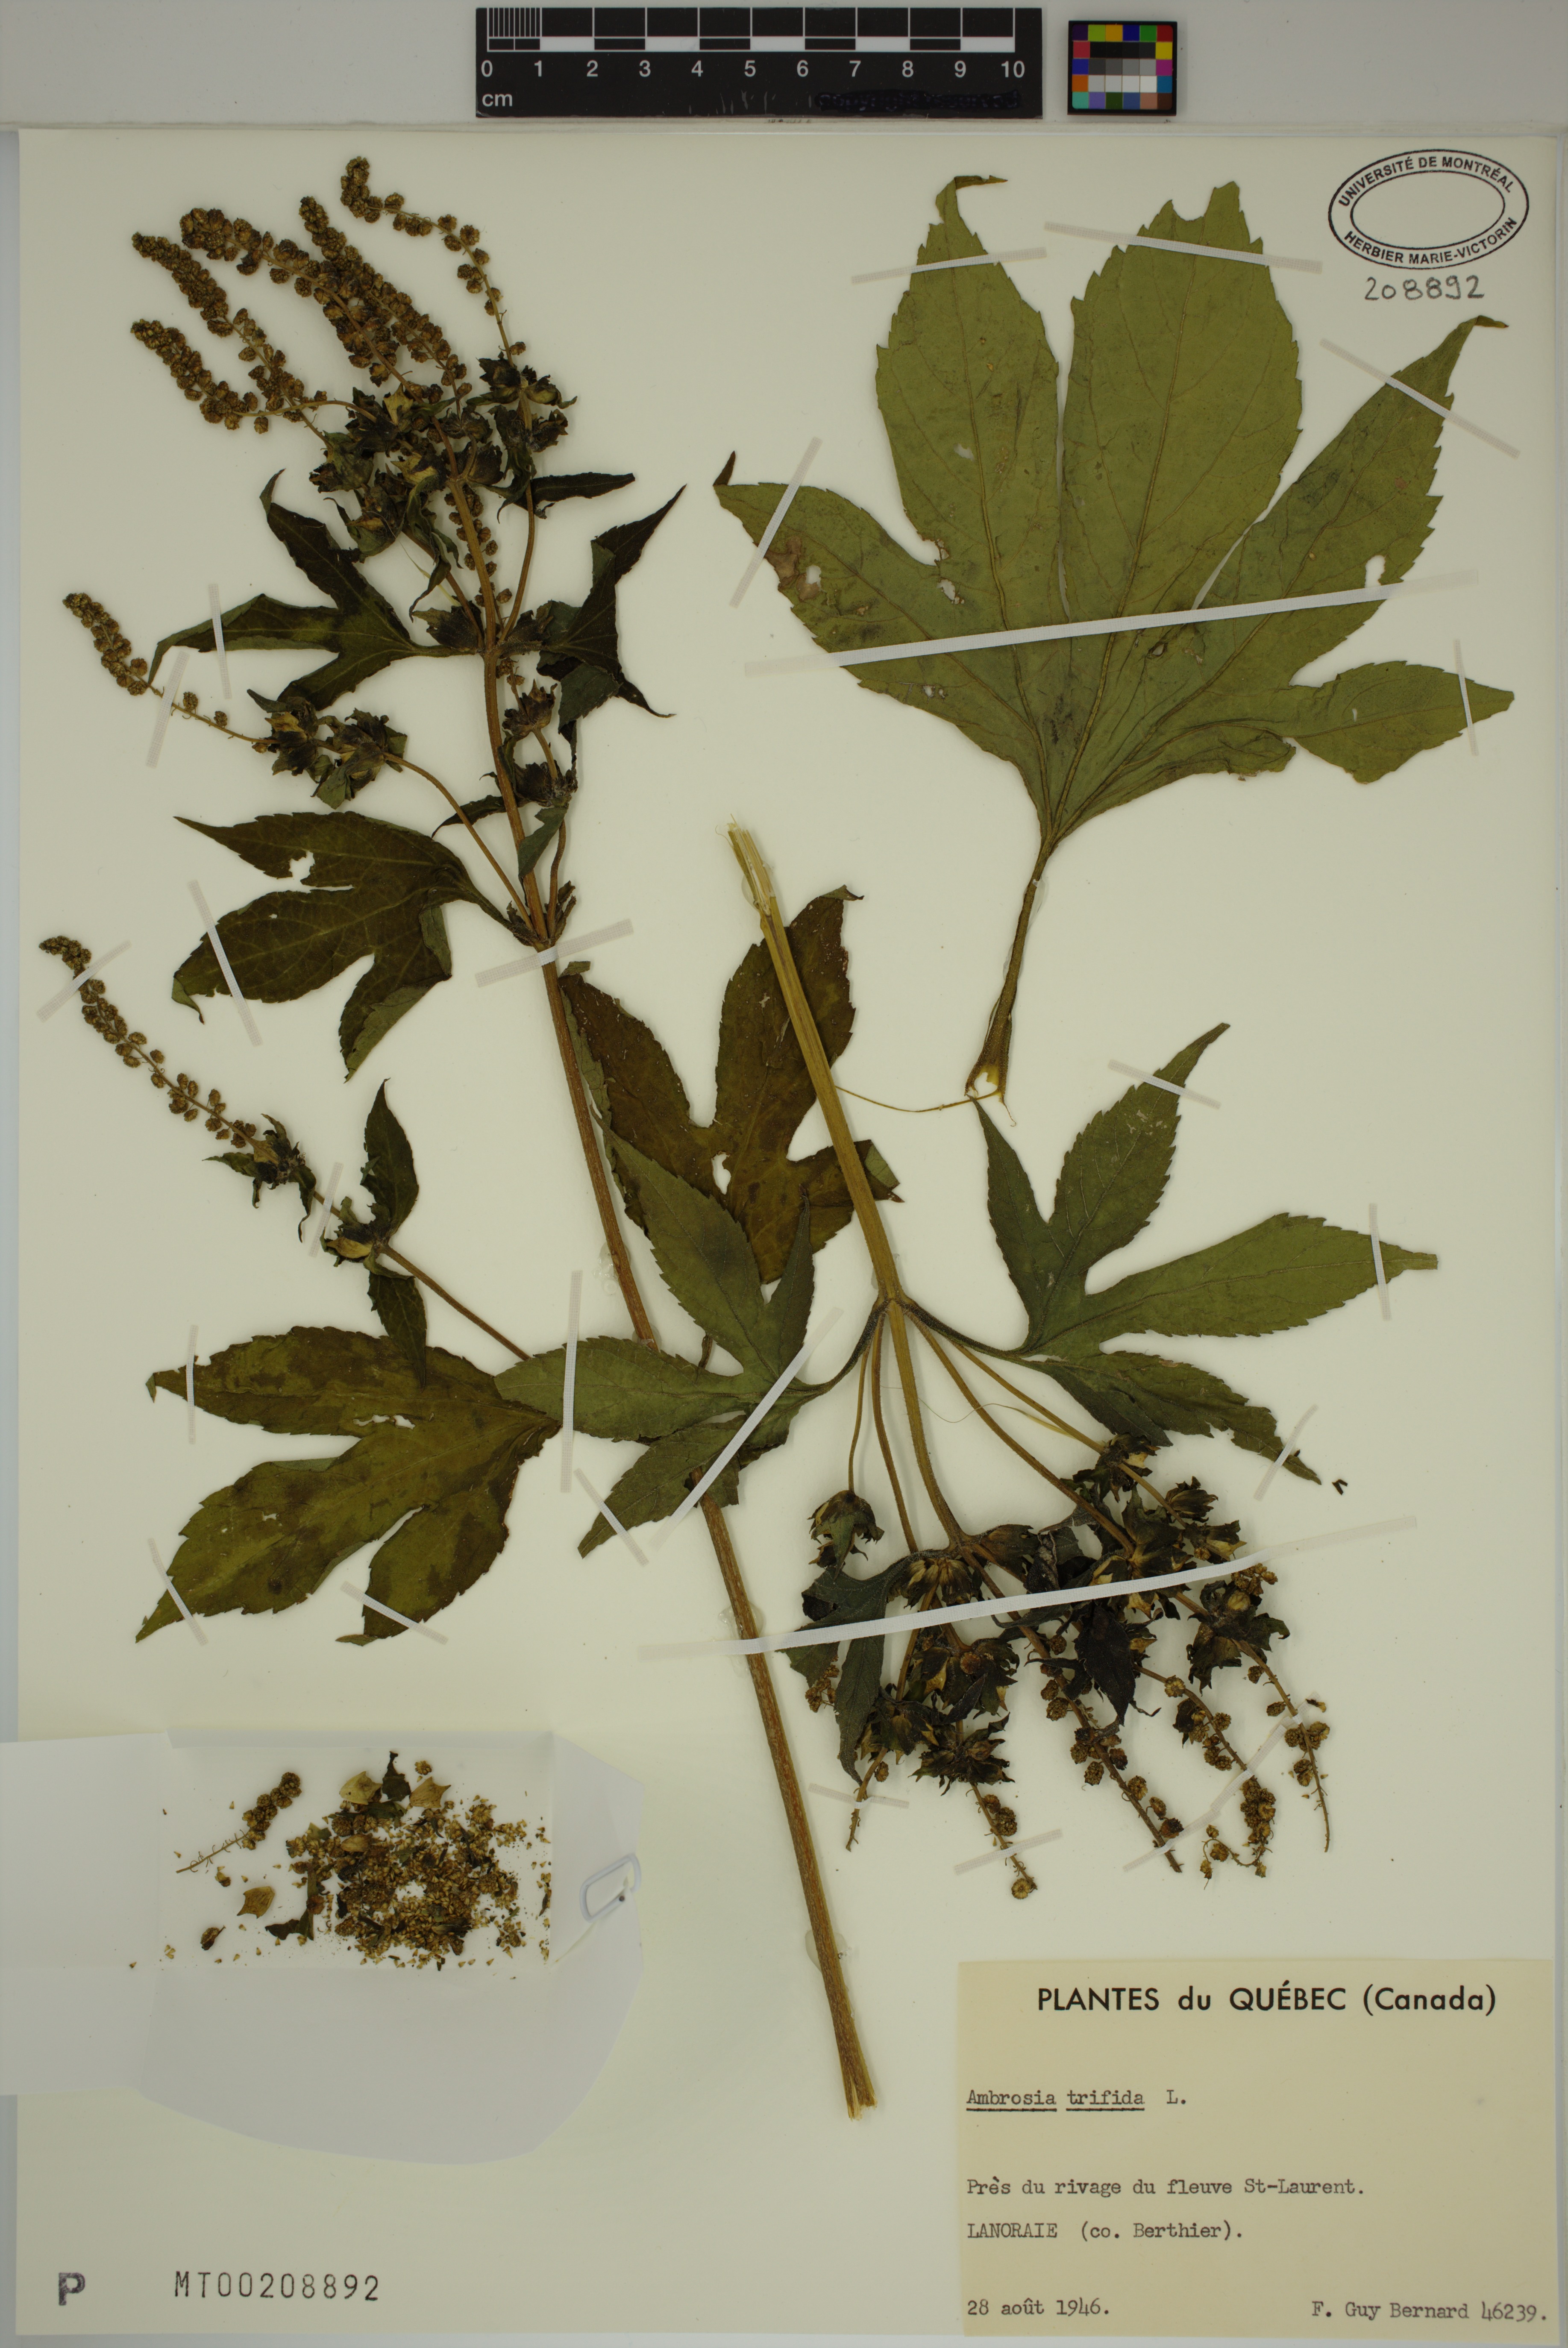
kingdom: Plantae
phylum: Tracheophyta
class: Magnoliopsida
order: Asterales
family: Asteraceae
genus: Ambrosia
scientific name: Ambrosia trifida
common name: Giant ragweed
